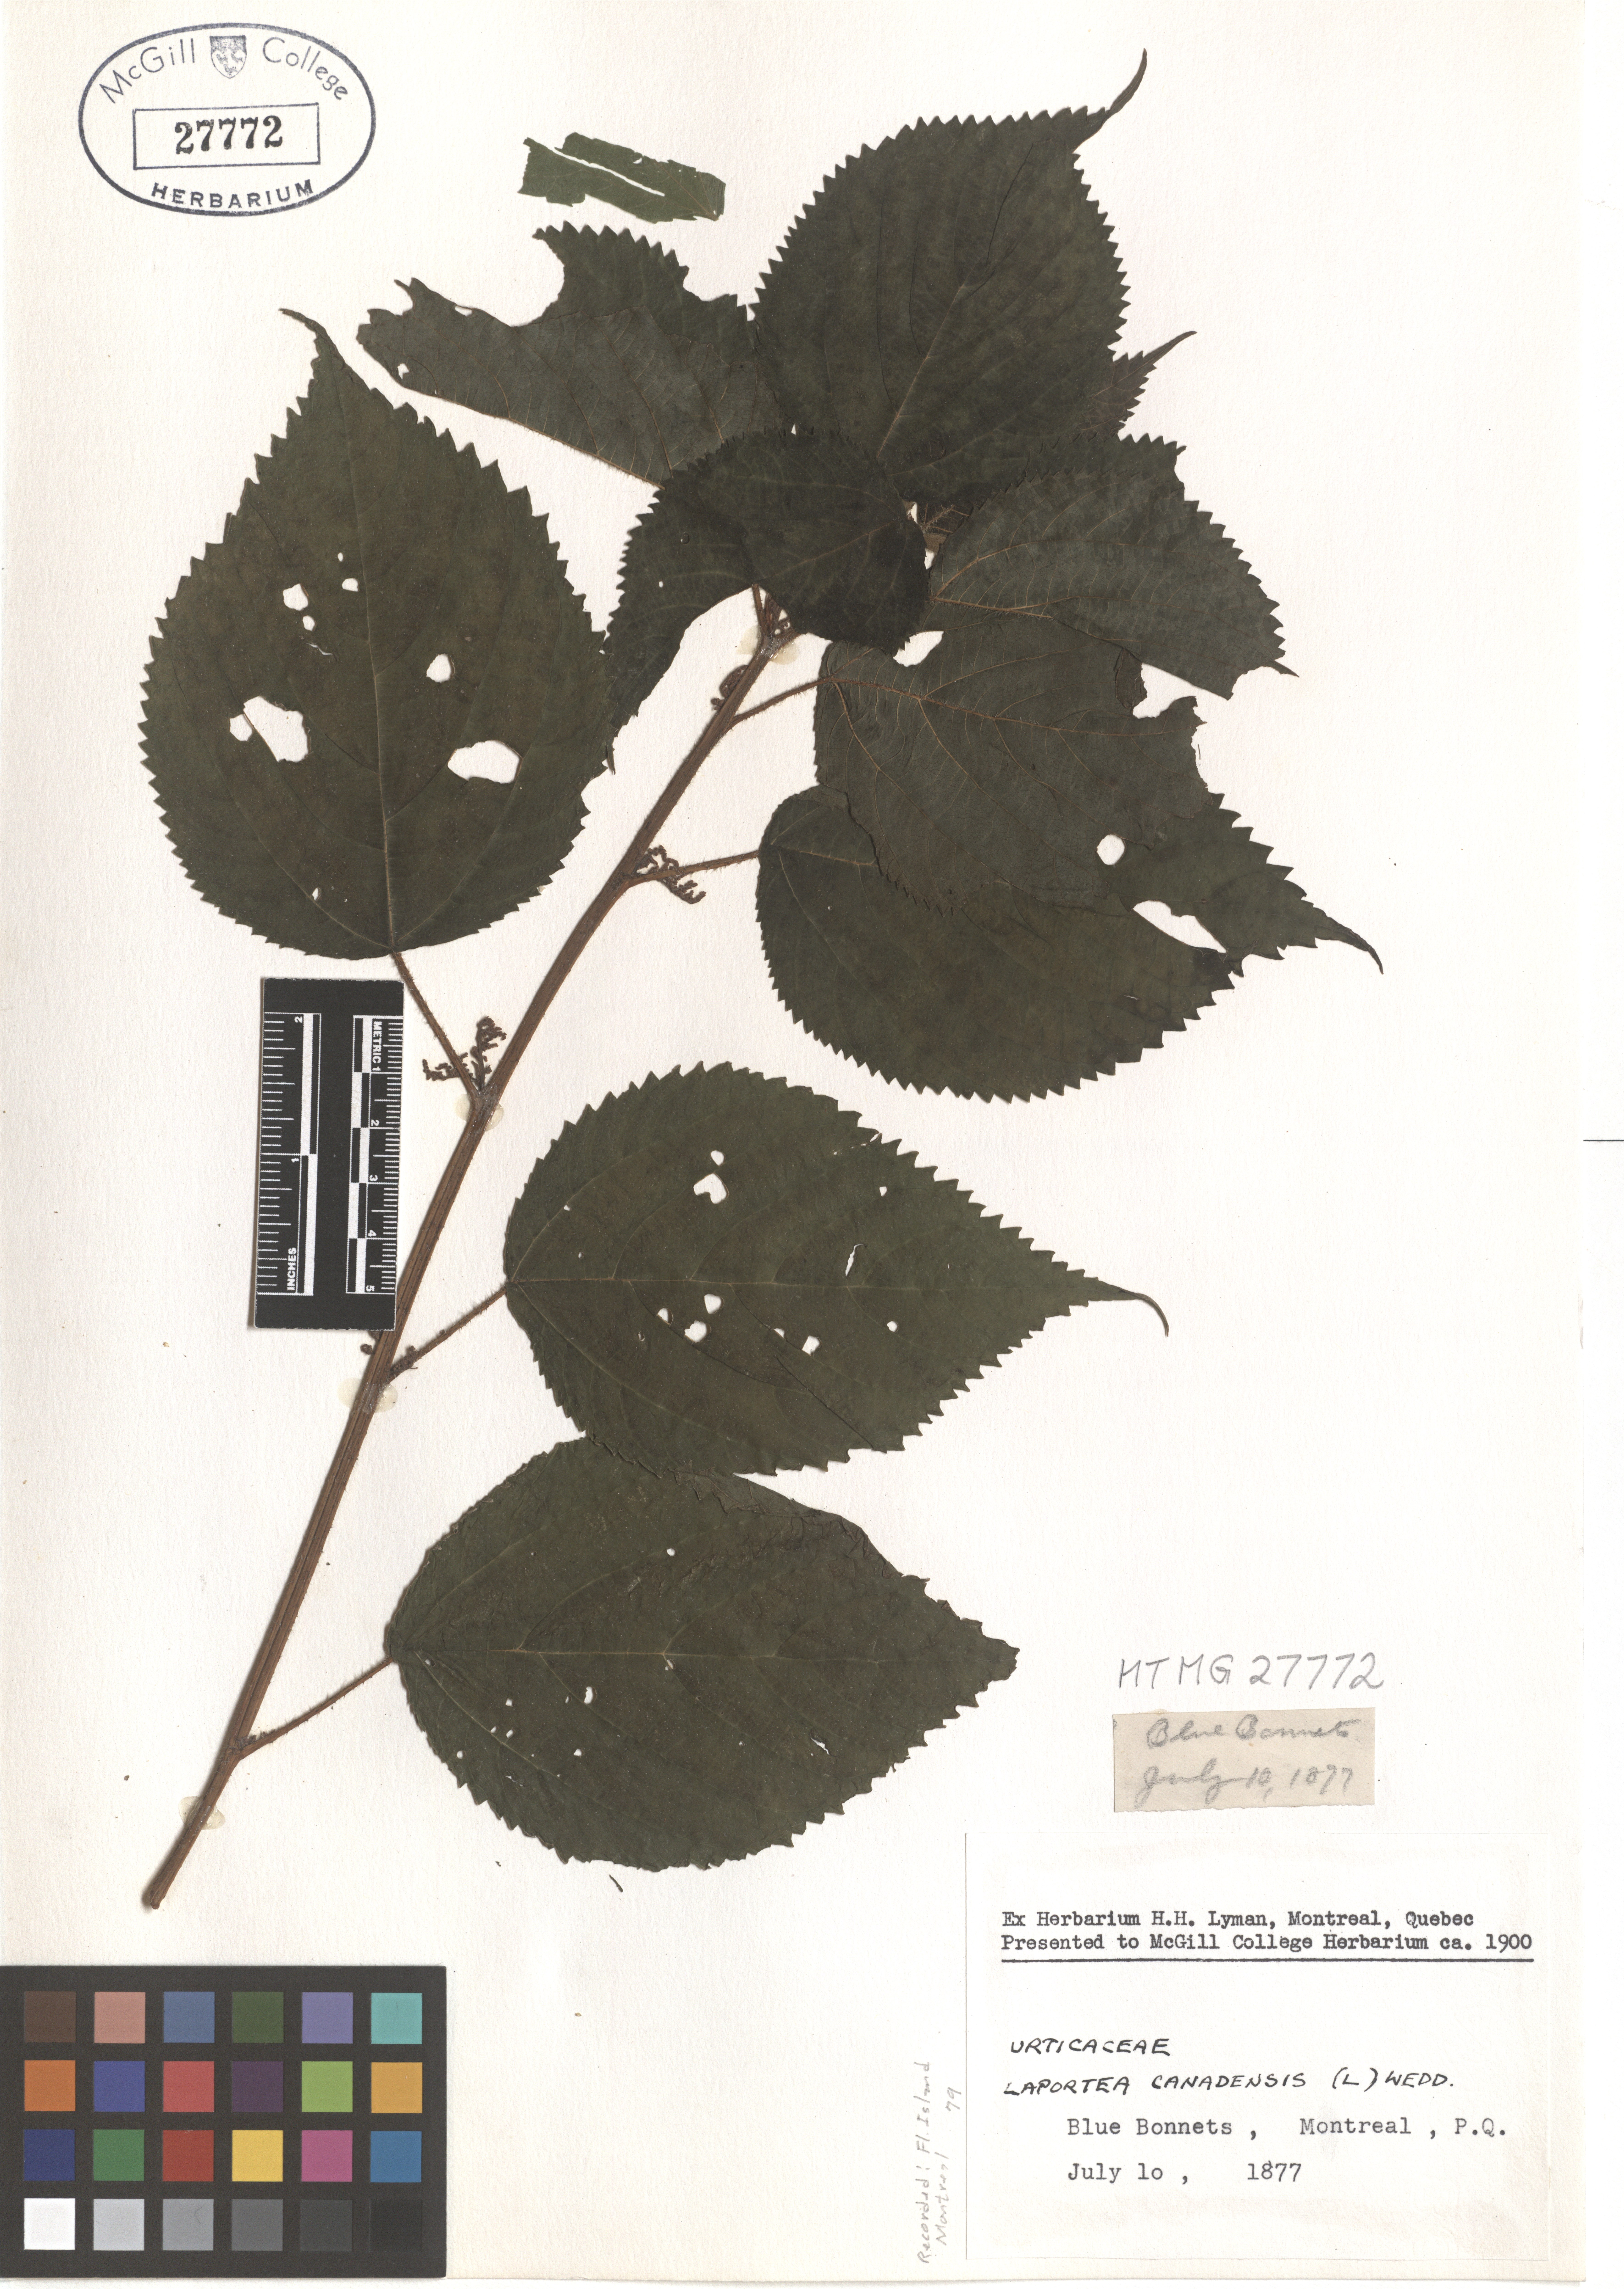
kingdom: Plantae
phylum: Tracheophyta
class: Magnoliopsida
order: Rosales
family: Urticaceae
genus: Laportea
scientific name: Laportea canadensis
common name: Canada nettle
